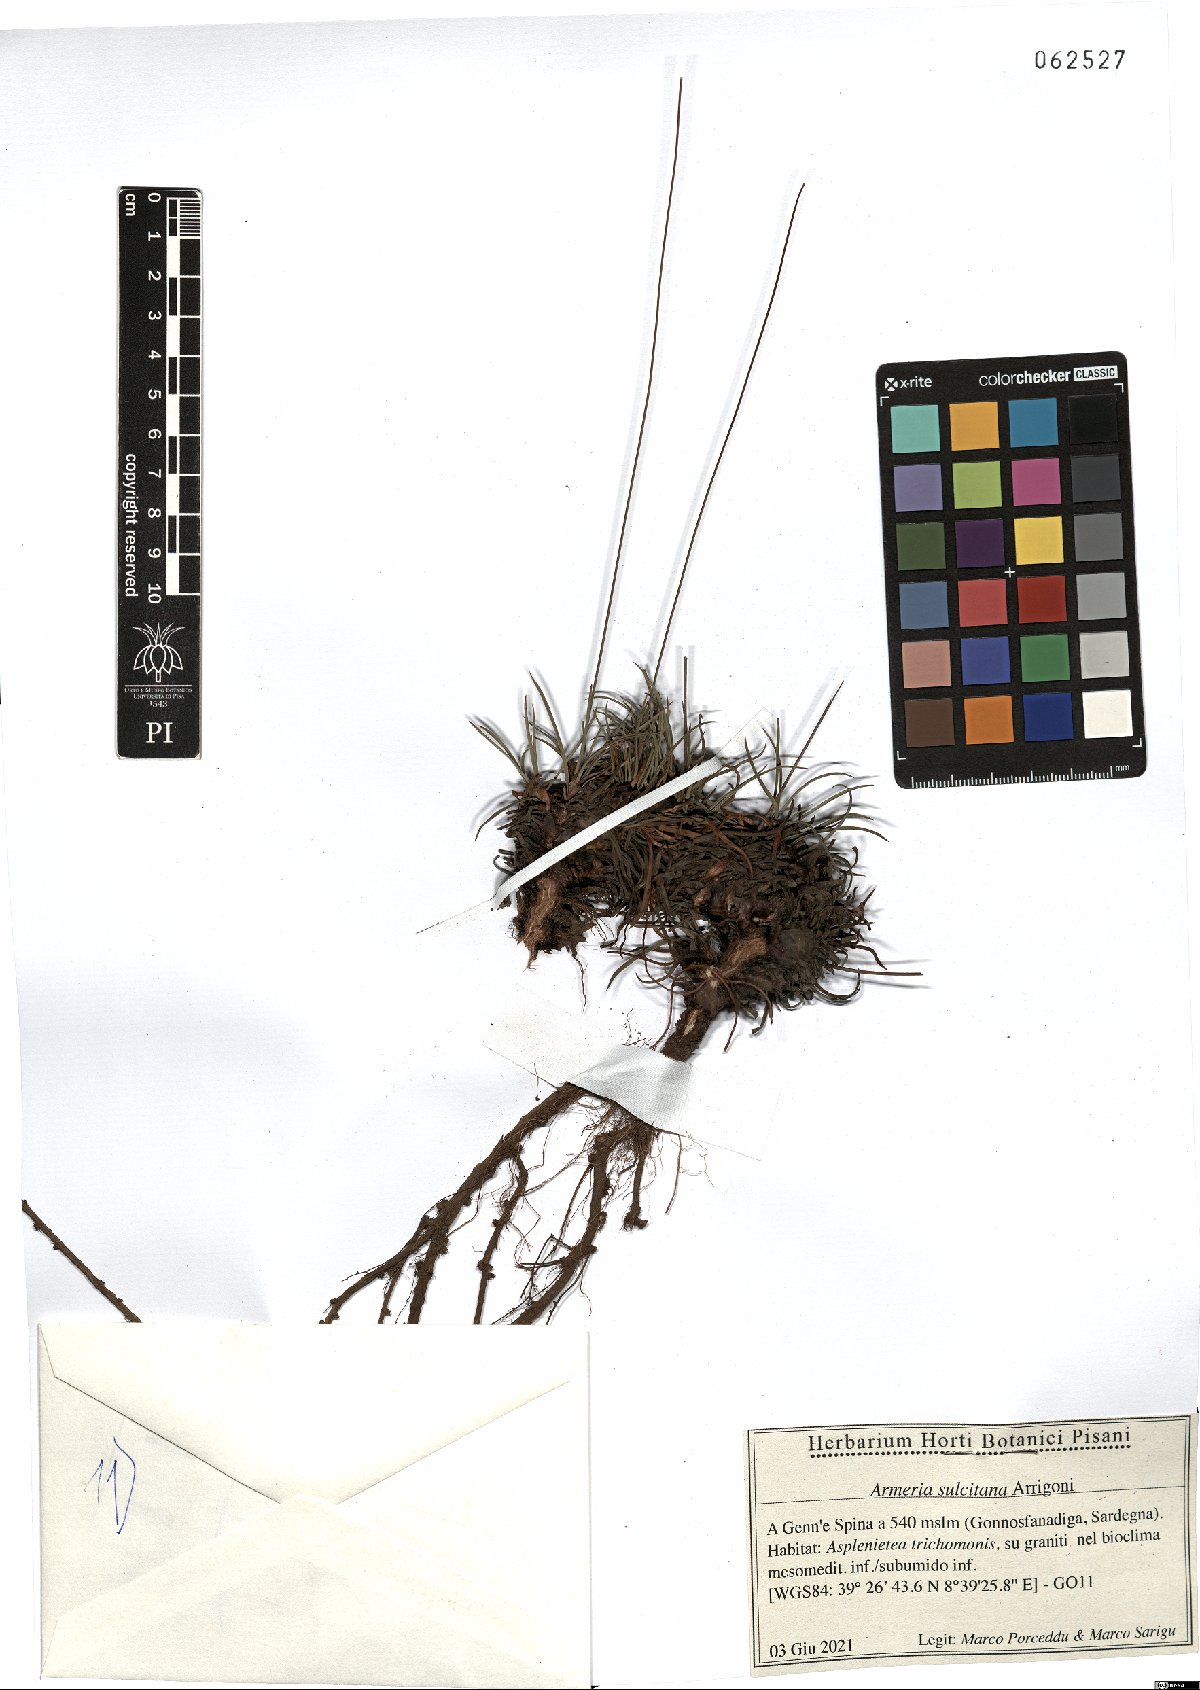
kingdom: Plantae
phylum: Tracheophyta
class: Magnoliopsida
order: Caryophyllales
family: Plumbaginaceae
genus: Armeria
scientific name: Armeria sulcitana
